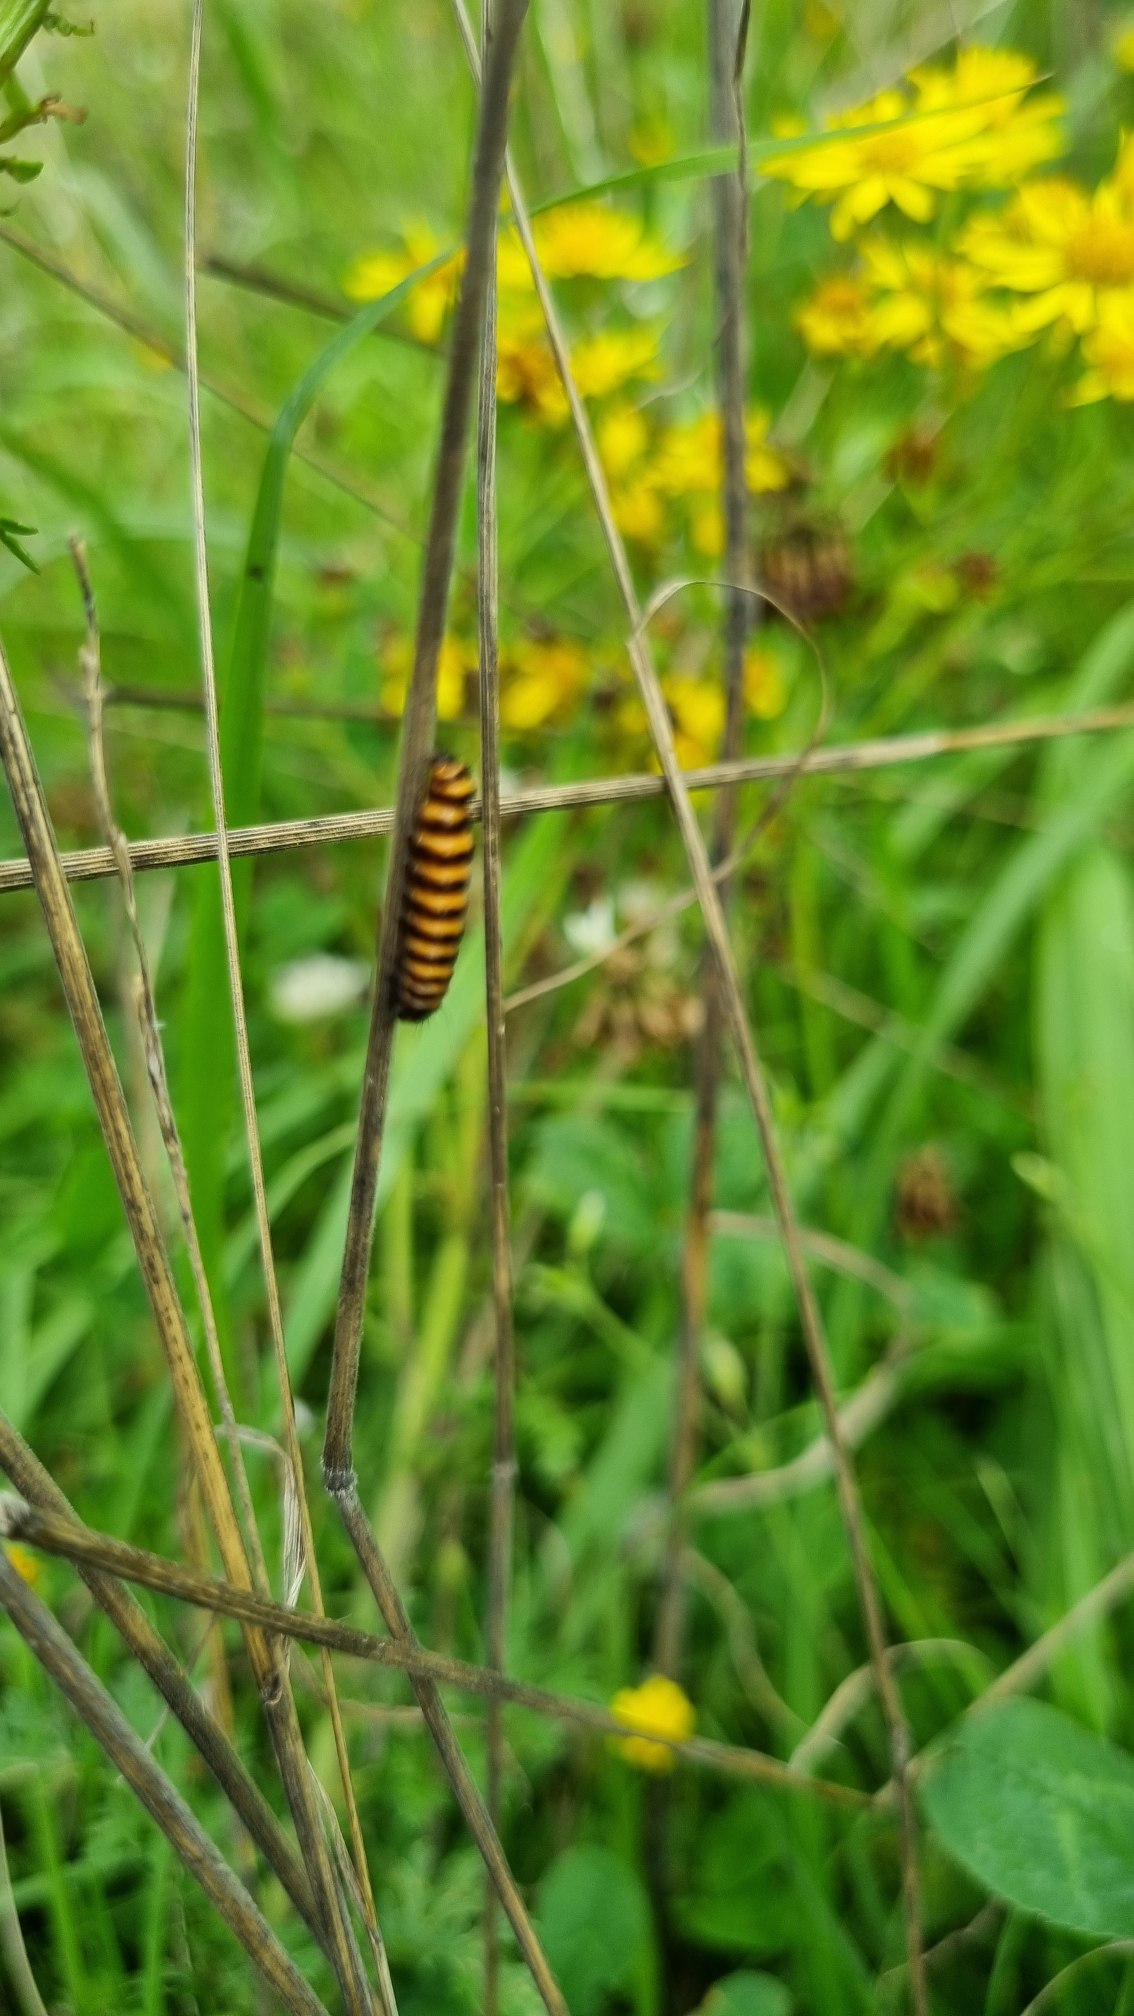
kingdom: Animalia
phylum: Arthropoda
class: Insecta
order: Lepidoptera
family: Erebidae
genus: Tyria
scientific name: Tyria jacobaeae
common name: Blodplet
